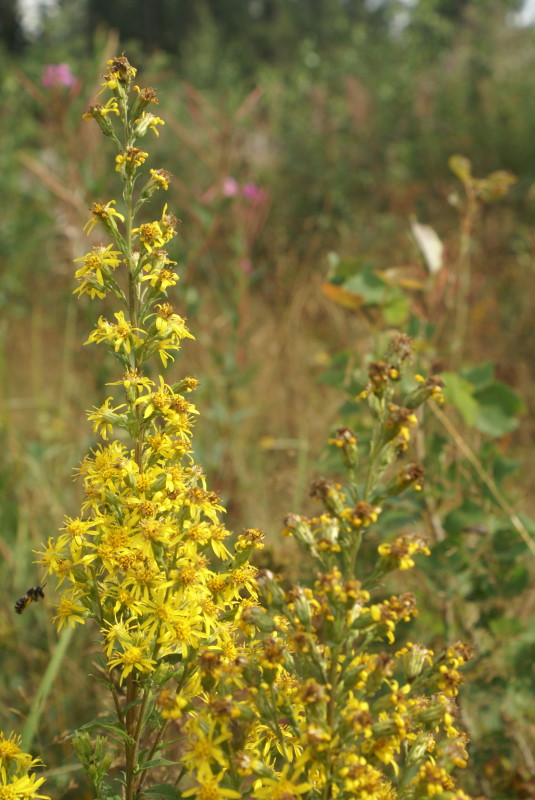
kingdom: Plantae
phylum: Tracheophyta
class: Magnoliopsida
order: Asterales
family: Asteraceae
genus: Solidago
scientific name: Solidago virgaurea
